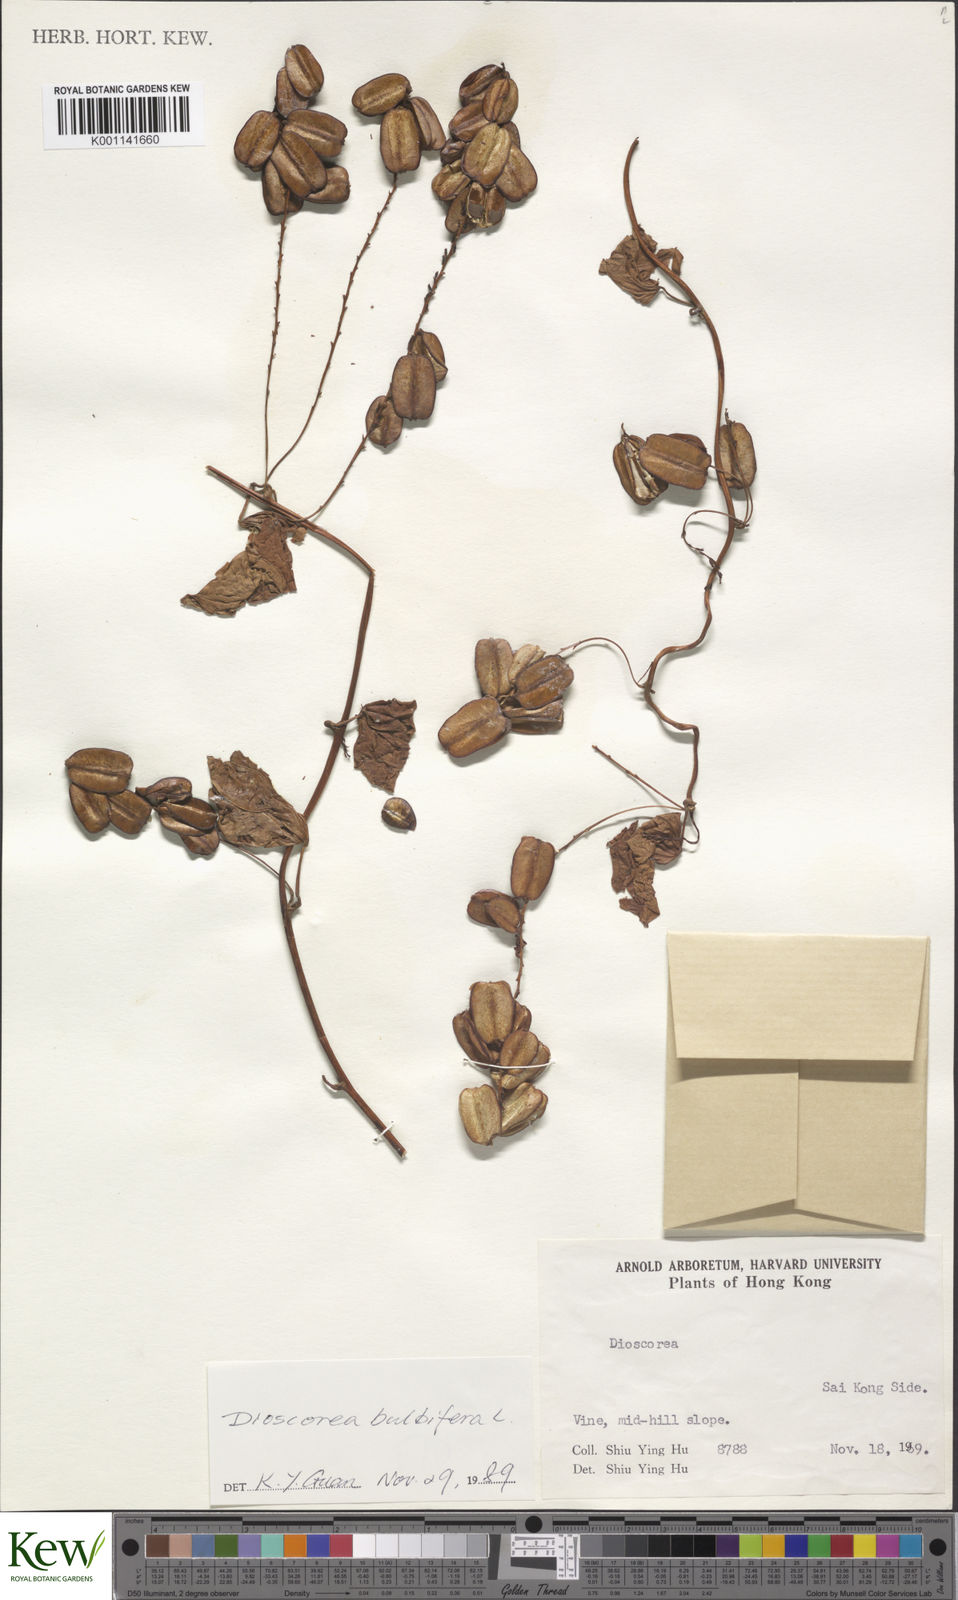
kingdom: Plantae
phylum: Tracheophyta
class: Liliopsida
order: Dioscoreales
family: Dioscoreaceae
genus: Dioscorea
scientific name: Dioscorea bulbifera
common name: Air yam
